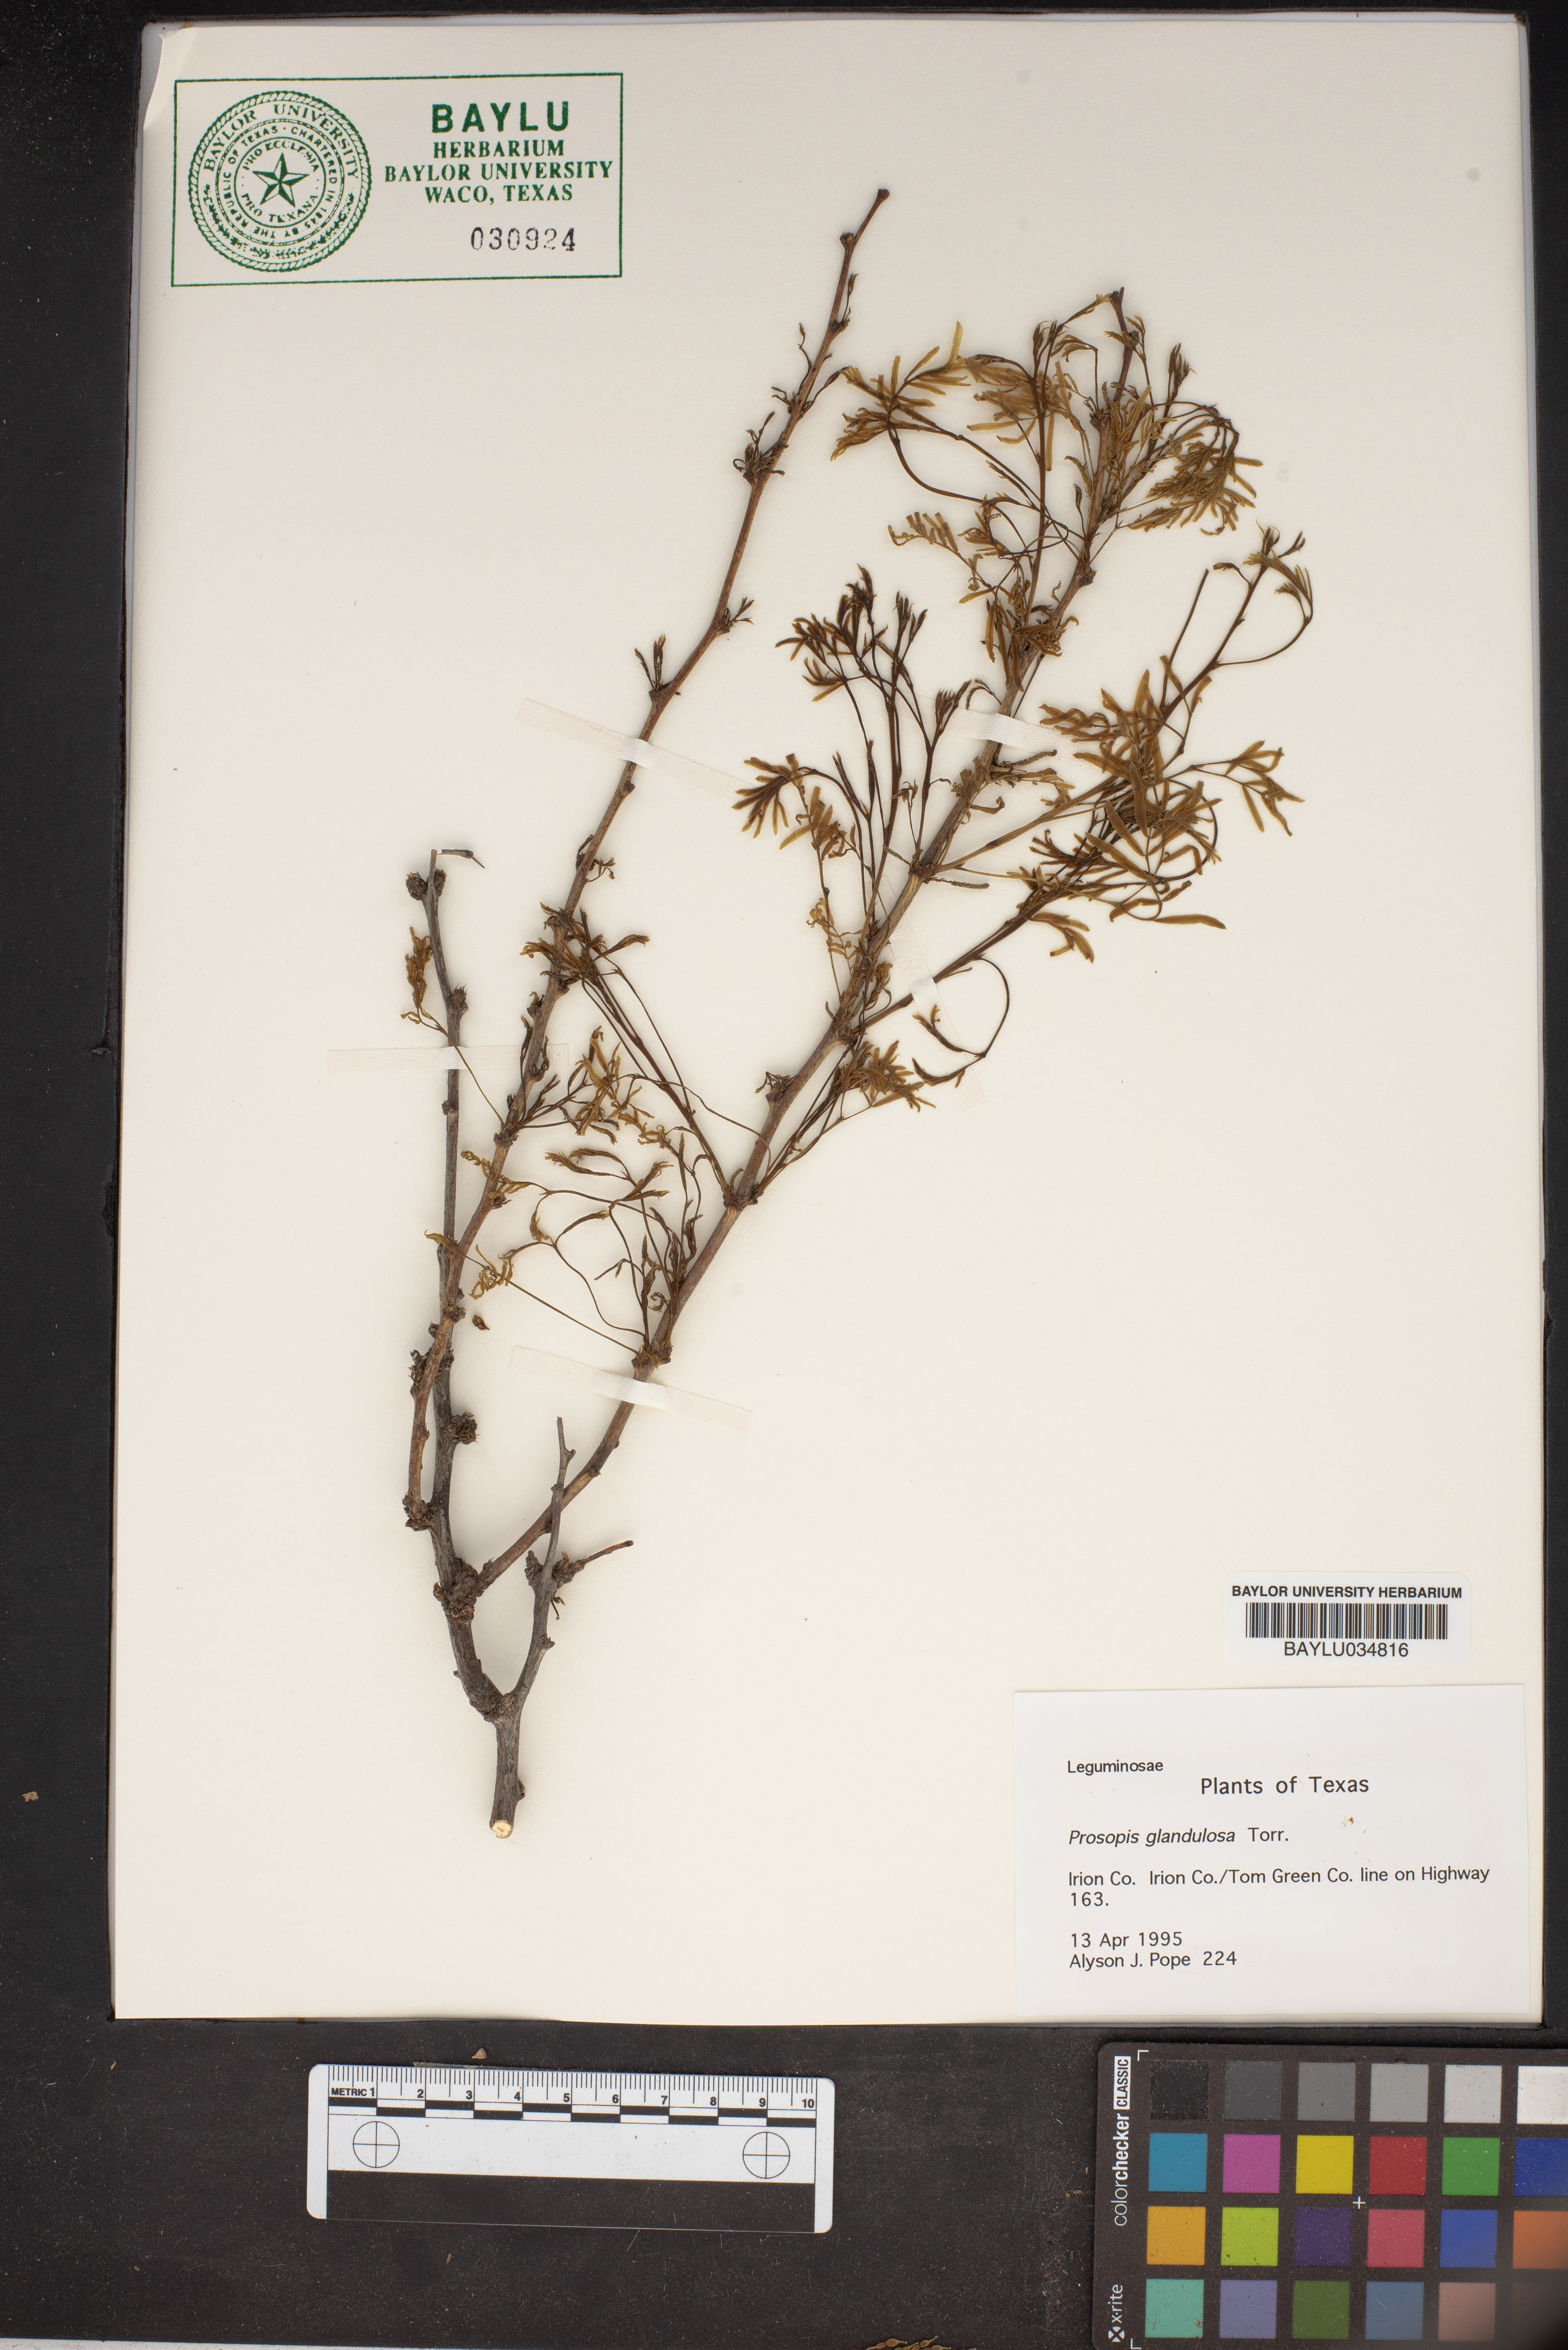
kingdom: Plantae
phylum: Tracheophyta
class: Magnoliopsida
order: Fabales
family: Fabaceae
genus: Prosopis
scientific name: Prosopis glandulosa
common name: Honey mesquite
